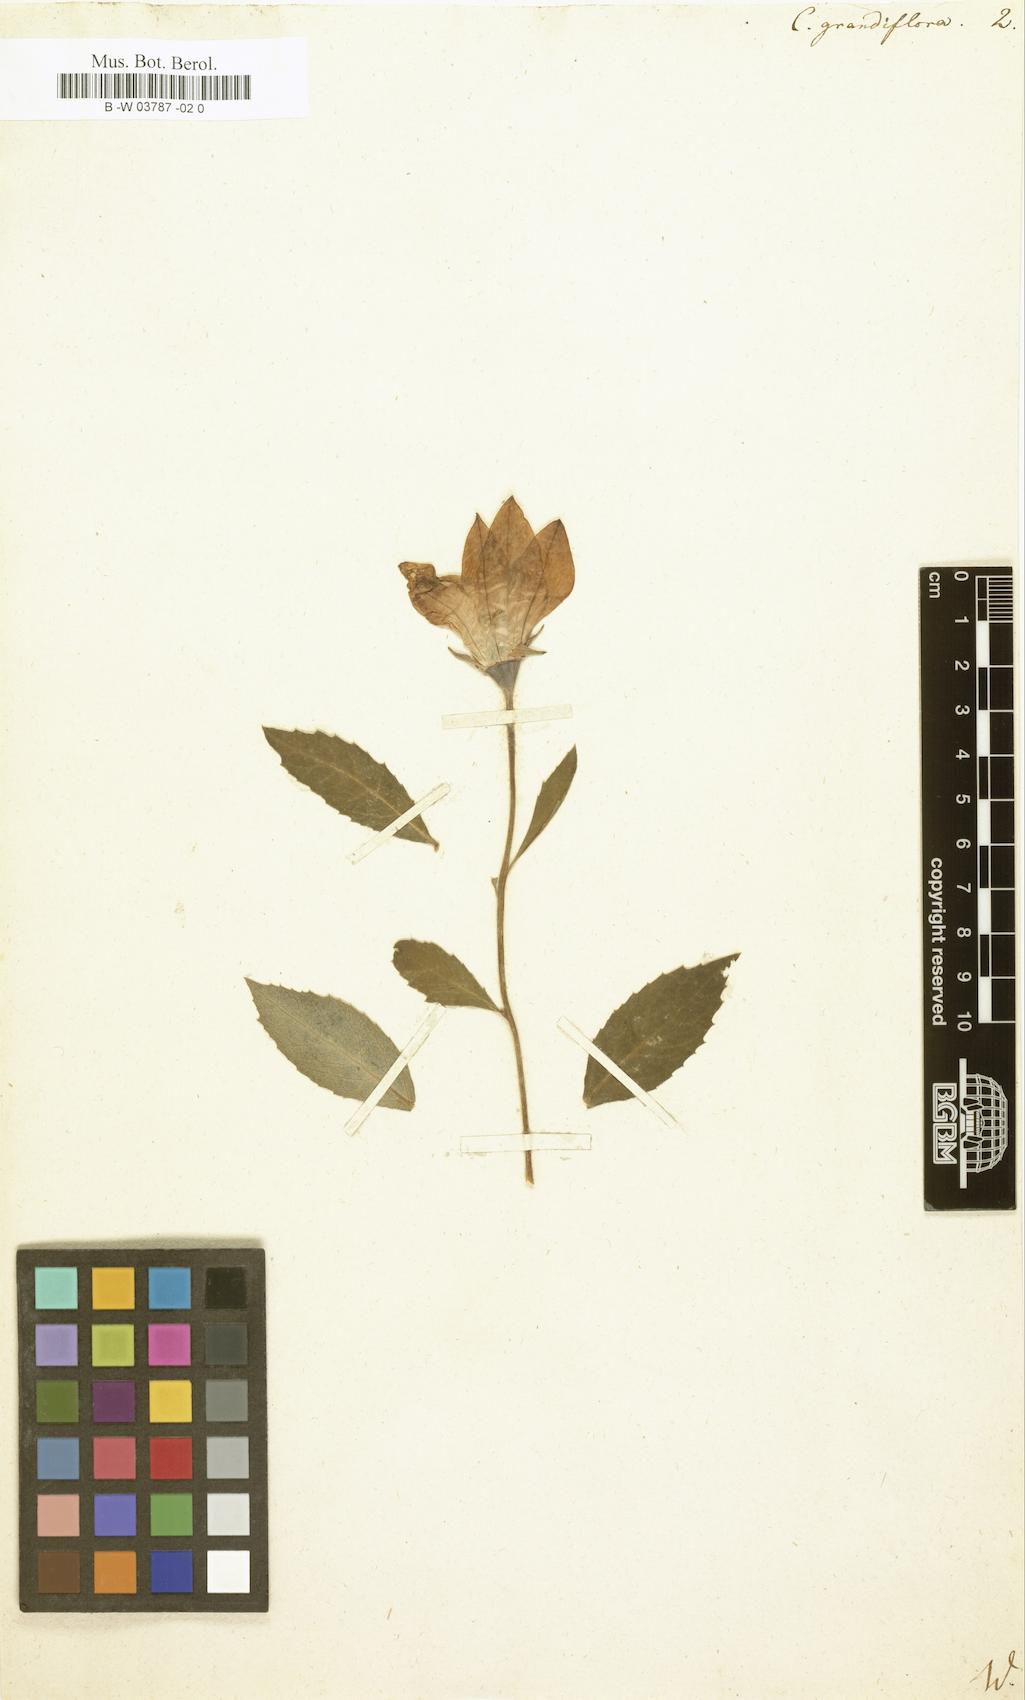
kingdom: Plantae
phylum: Tracheophyta
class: Magnoliopsida
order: Asterales
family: Campanulaceae
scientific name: Campanulaceae
